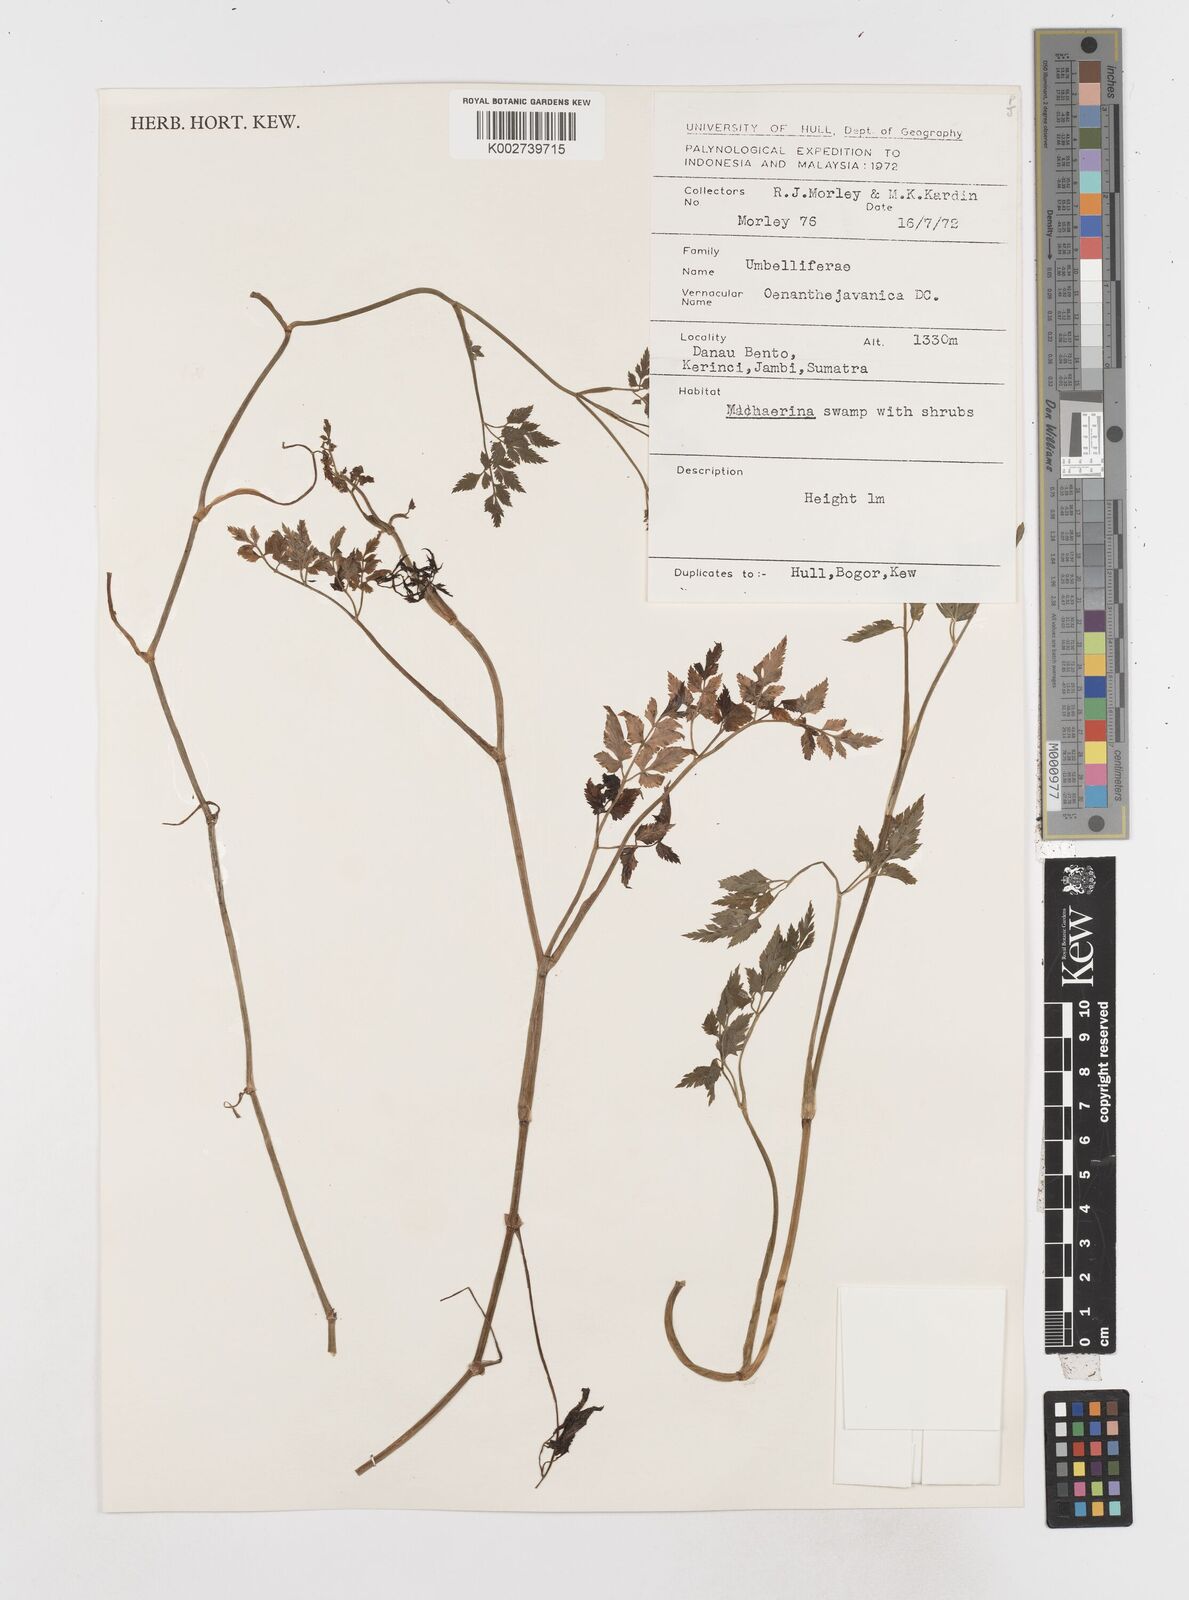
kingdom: Plantae
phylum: Tracheophyta
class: Magnoliopsida
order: Apiales
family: Apiaceae
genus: Oenanthe
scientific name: Oenanthe javanica
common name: Java water-dropwort
